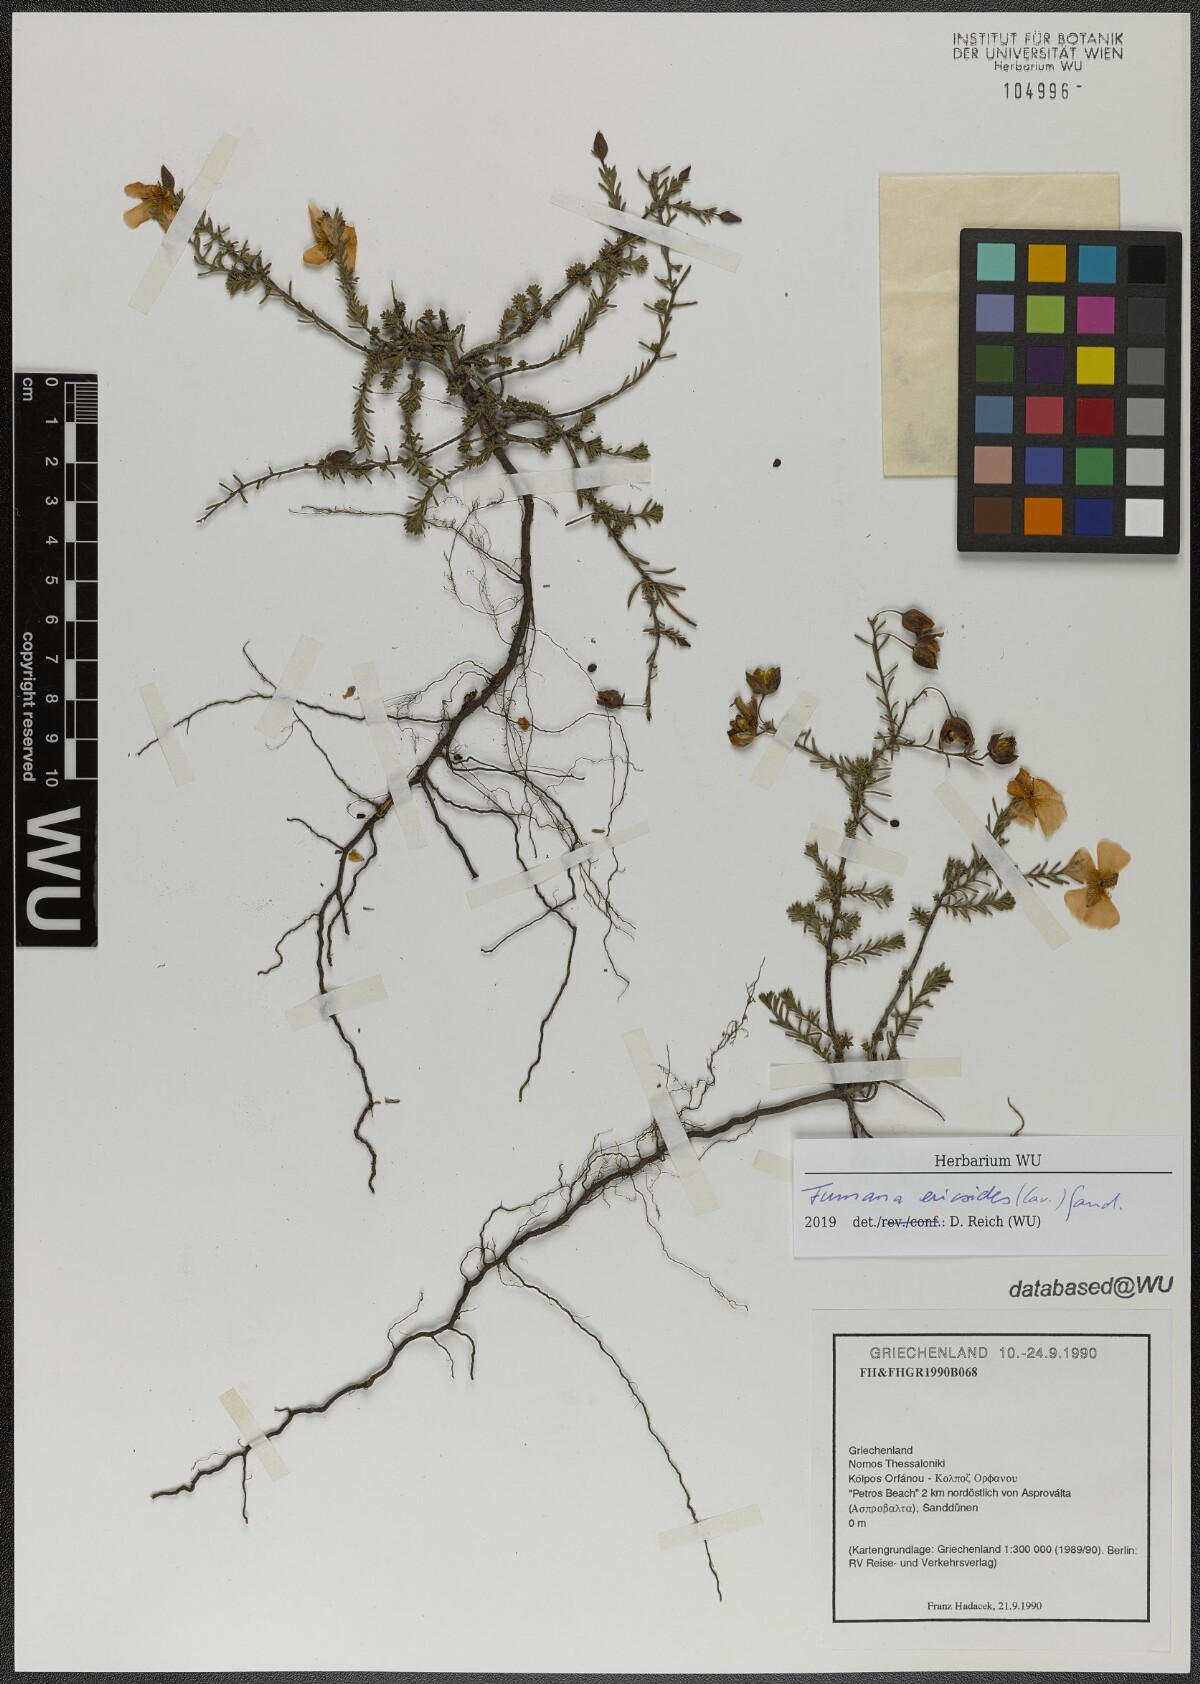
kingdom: Plantae
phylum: Tracheophyta
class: Magnoliopsida
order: Malvales
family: Cistaceae
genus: Fumana
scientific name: Fumana ericoides
